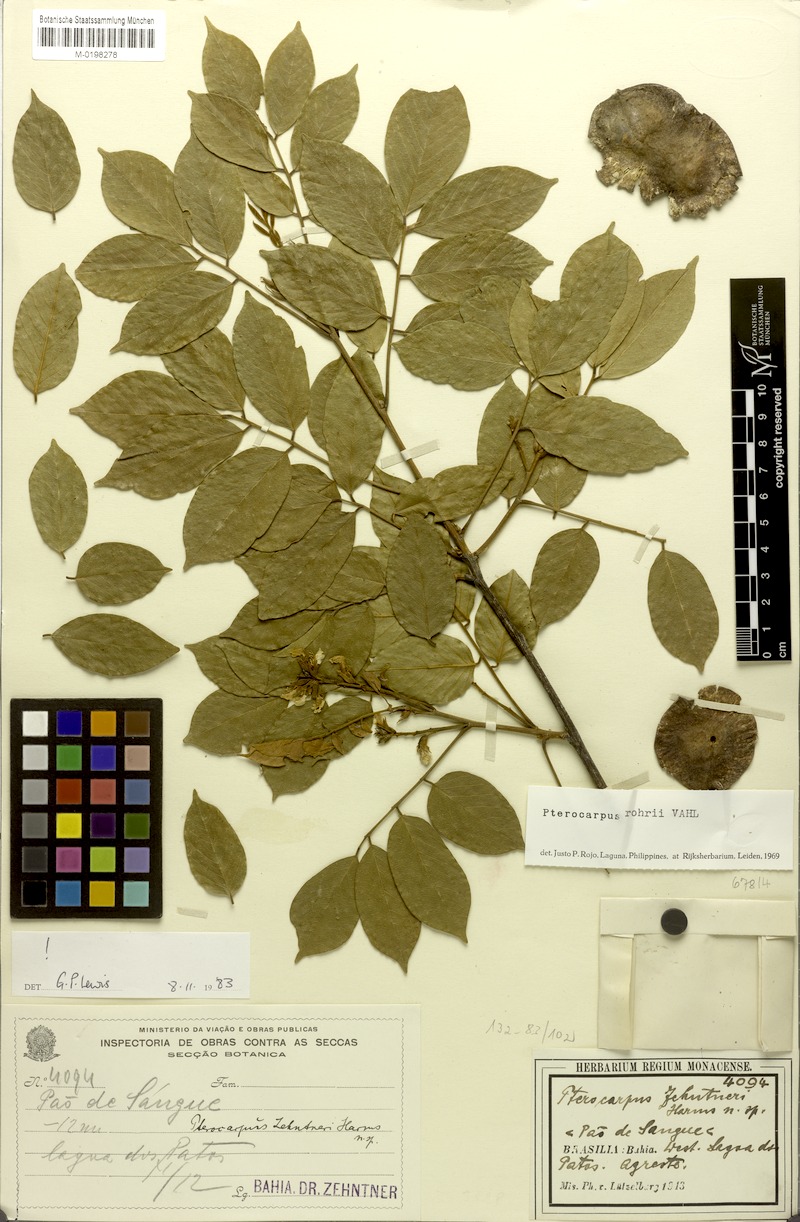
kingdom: Plantae
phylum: Tracheophyta
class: Magnoliopsida
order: Fabales
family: Fabaceae
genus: Pterocarpus
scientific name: Pterocarpus zehntneri
